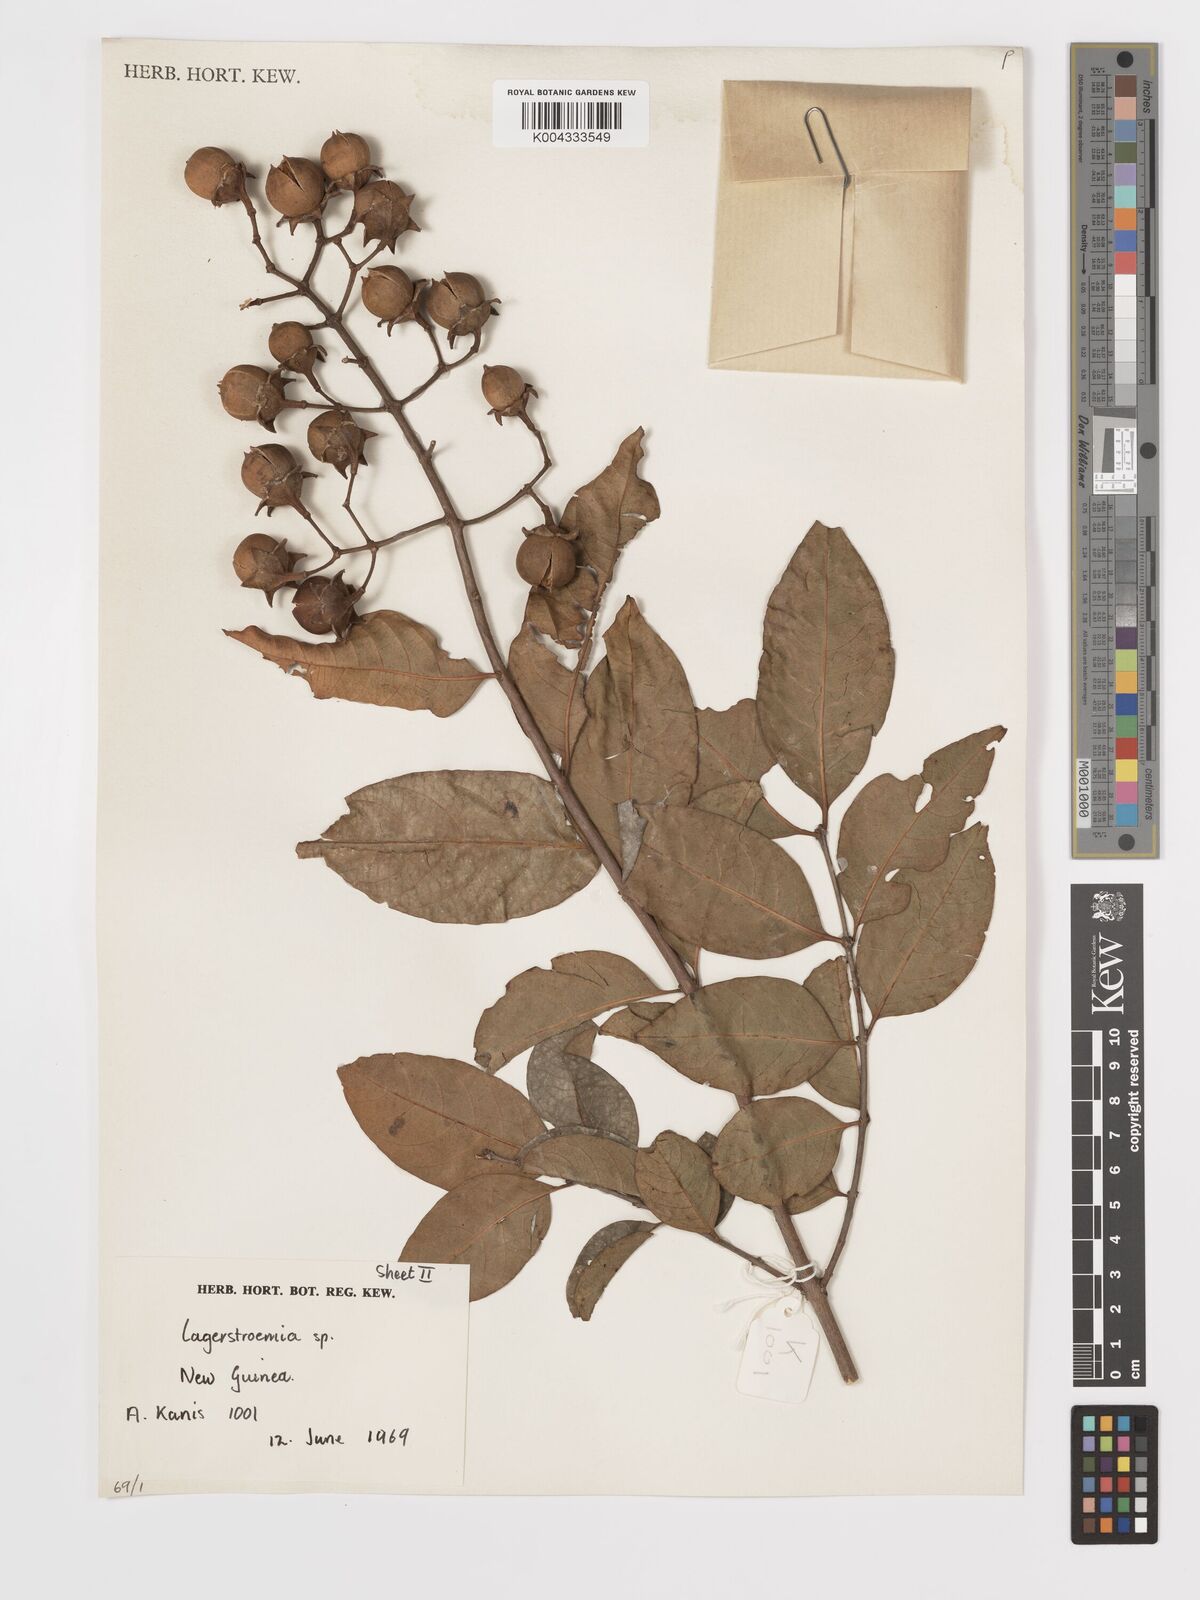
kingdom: Plantae
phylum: Tracheophyta
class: Magnoliopsida
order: Myrtales
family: Lythraceae
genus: Lagerstroemia
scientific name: Lagerstroemia
